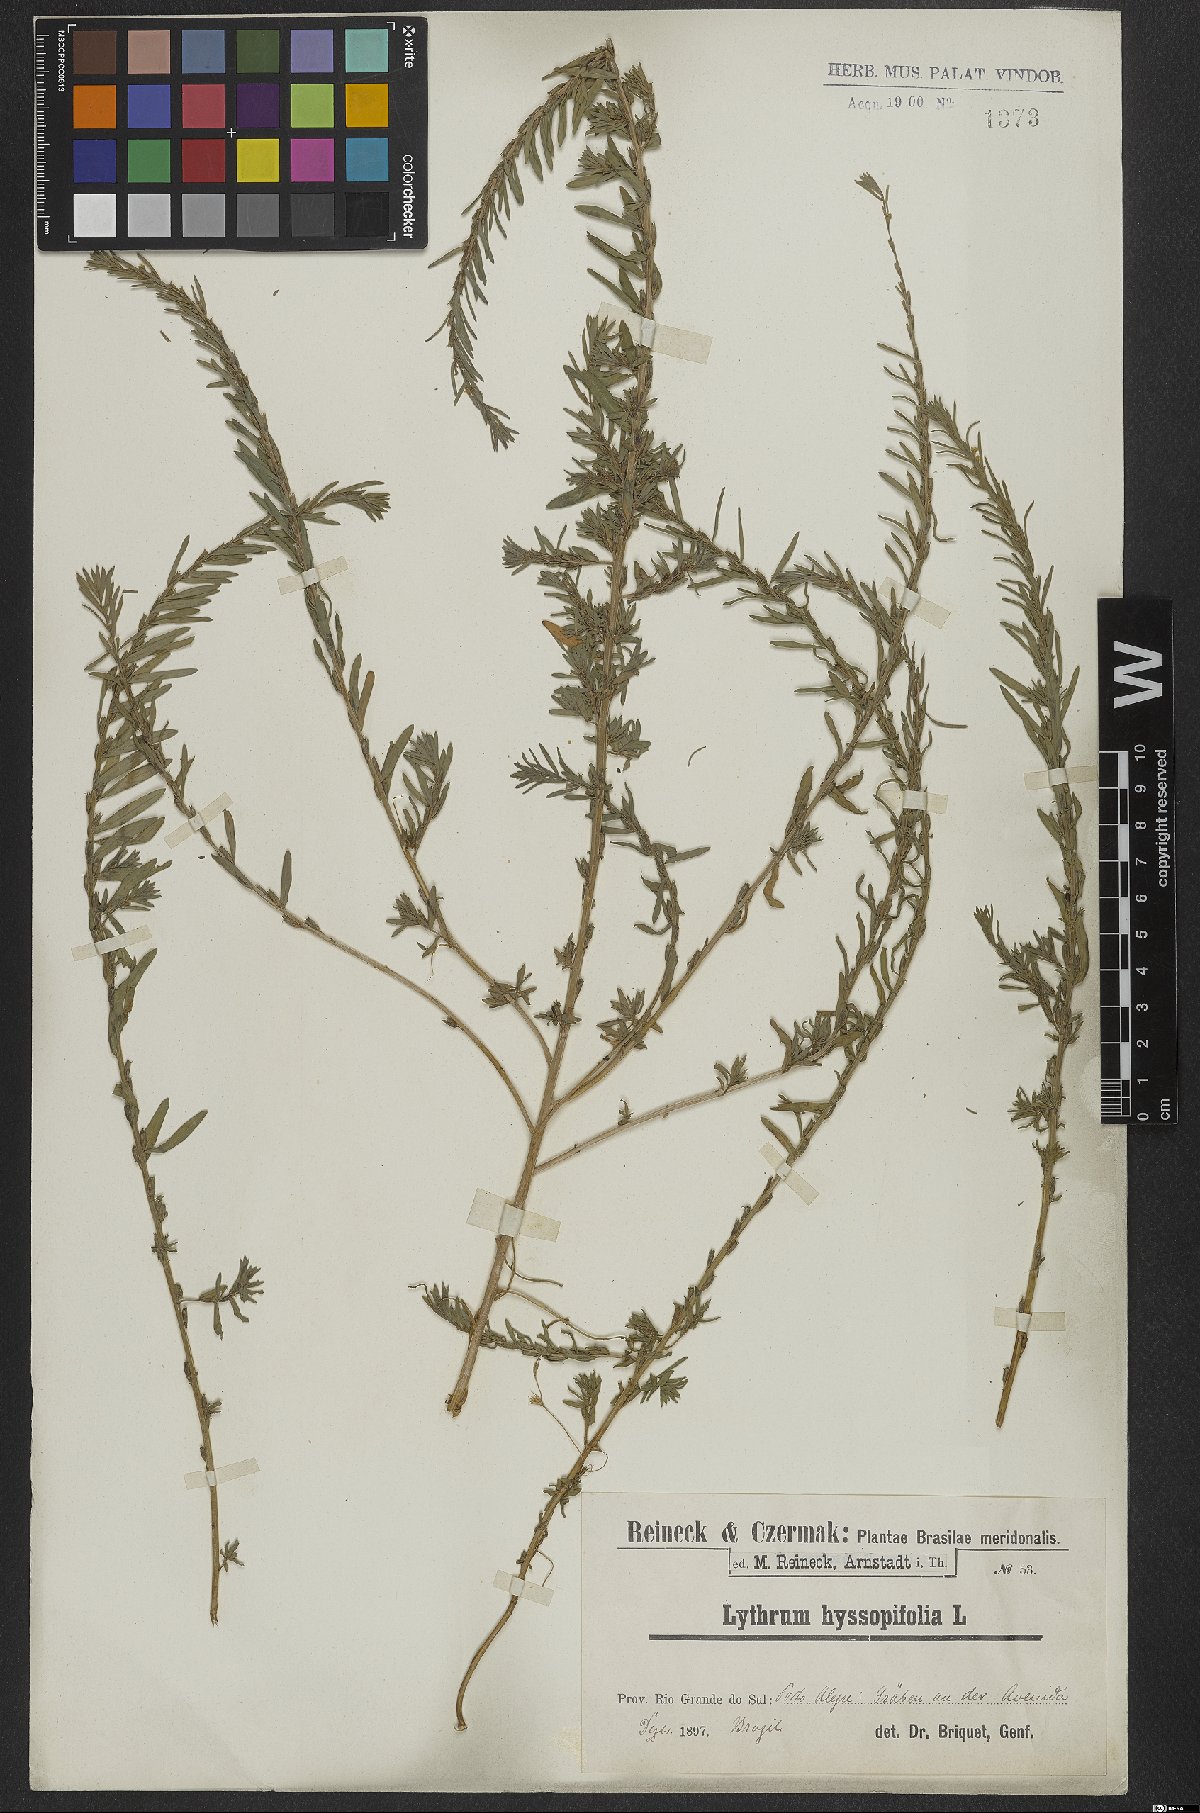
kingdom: Plantae
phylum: Tracheophyta
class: Magnoliopsida
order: Myrtales
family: Lythraceae
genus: Lythrum
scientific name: Lythrum hyssopifolia
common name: Grass-poly
